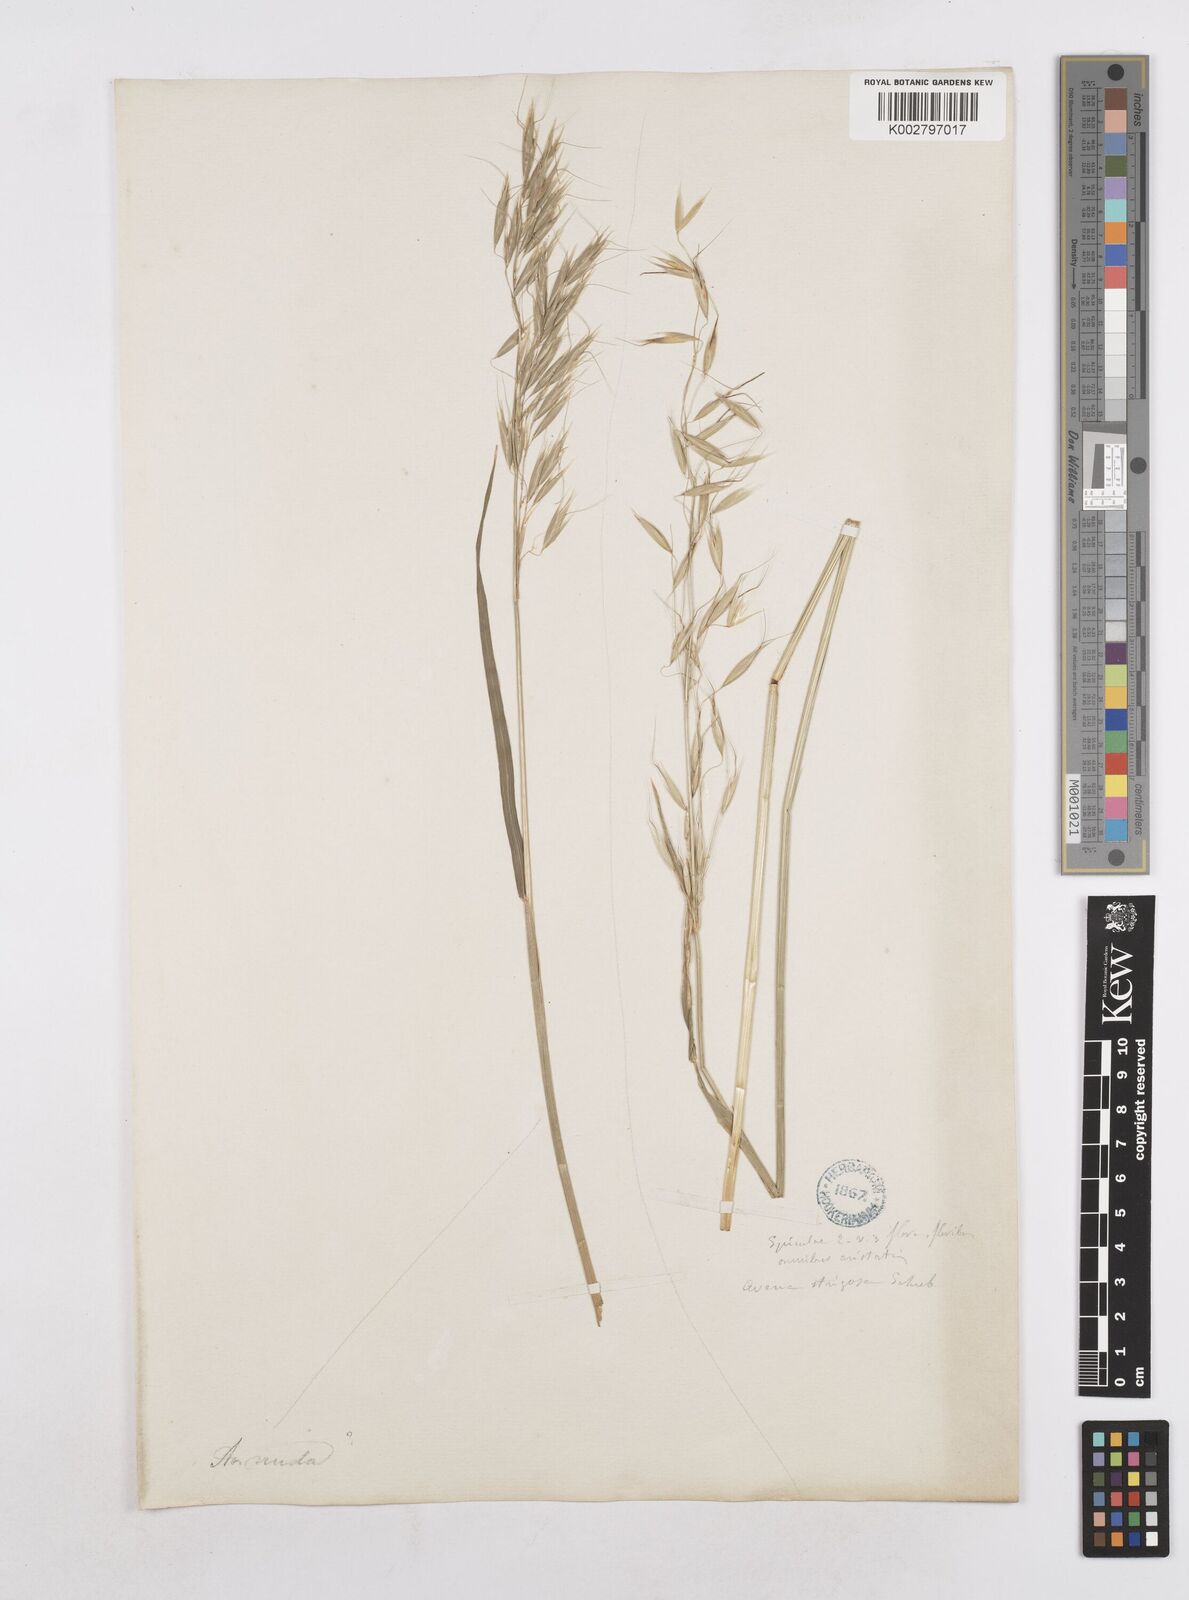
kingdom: Plantae
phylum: Tracheophyta
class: Liliopsida
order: Poales
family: Poaceae
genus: Avena
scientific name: Avena strigosa
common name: Bristle oat
